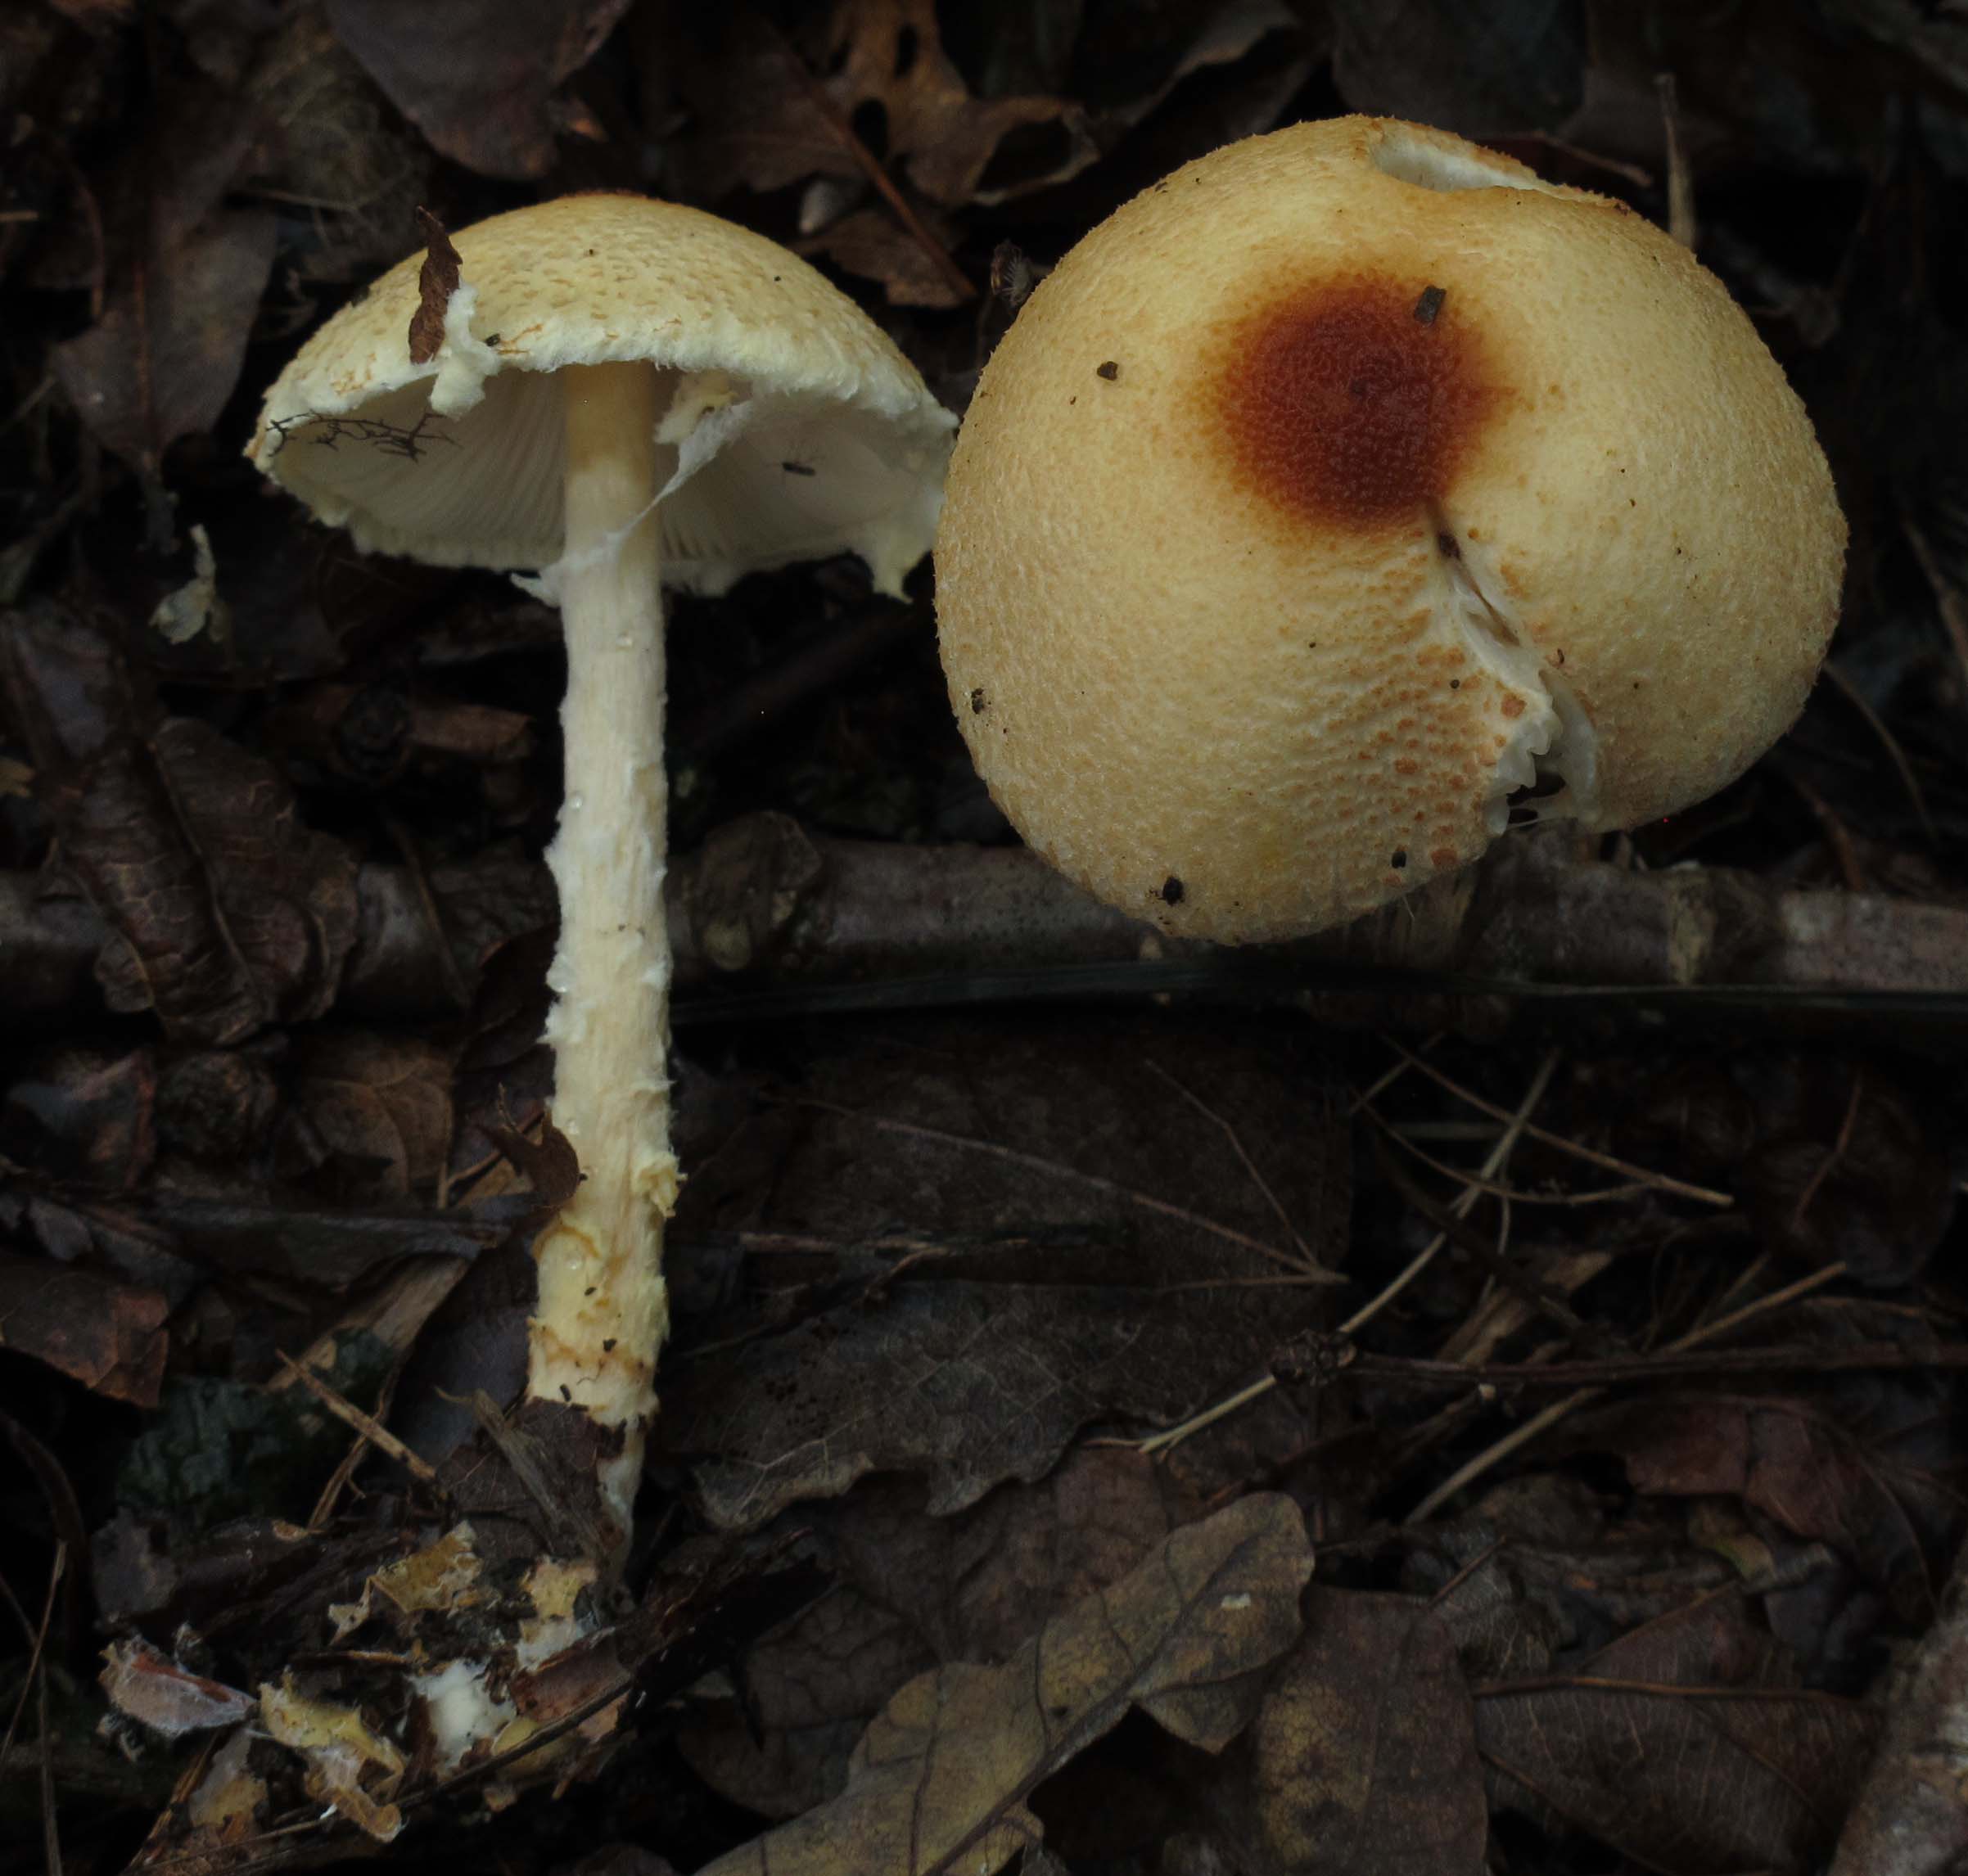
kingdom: Fungi
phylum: Basidiomycota
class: Agaricomycetes
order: Agaricales
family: Agaricaceae
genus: Lepiota
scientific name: Lepiota magnispora
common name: gulfnugget parasolhat
